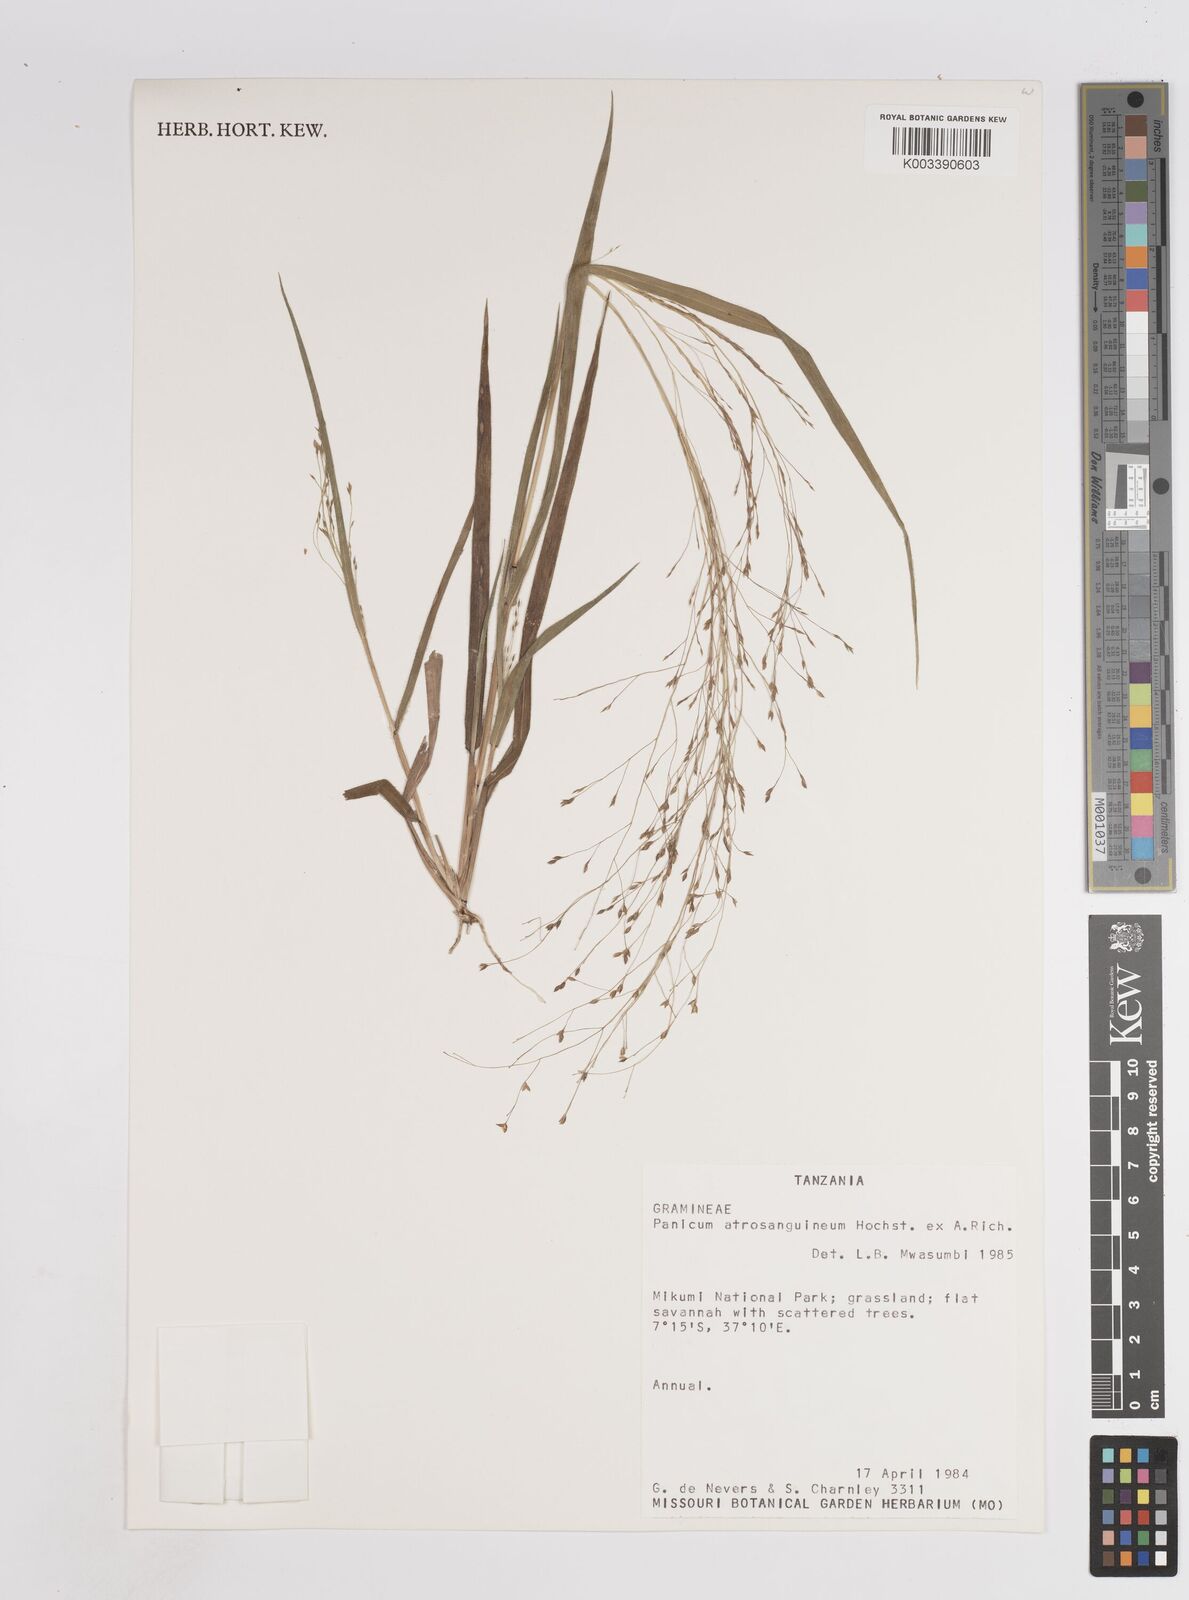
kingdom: Plantae
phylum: Tracheophyta
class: Liliopsida
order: Poales
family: Poaceae
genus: Panicum
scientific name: Panicum atrosanguineum
